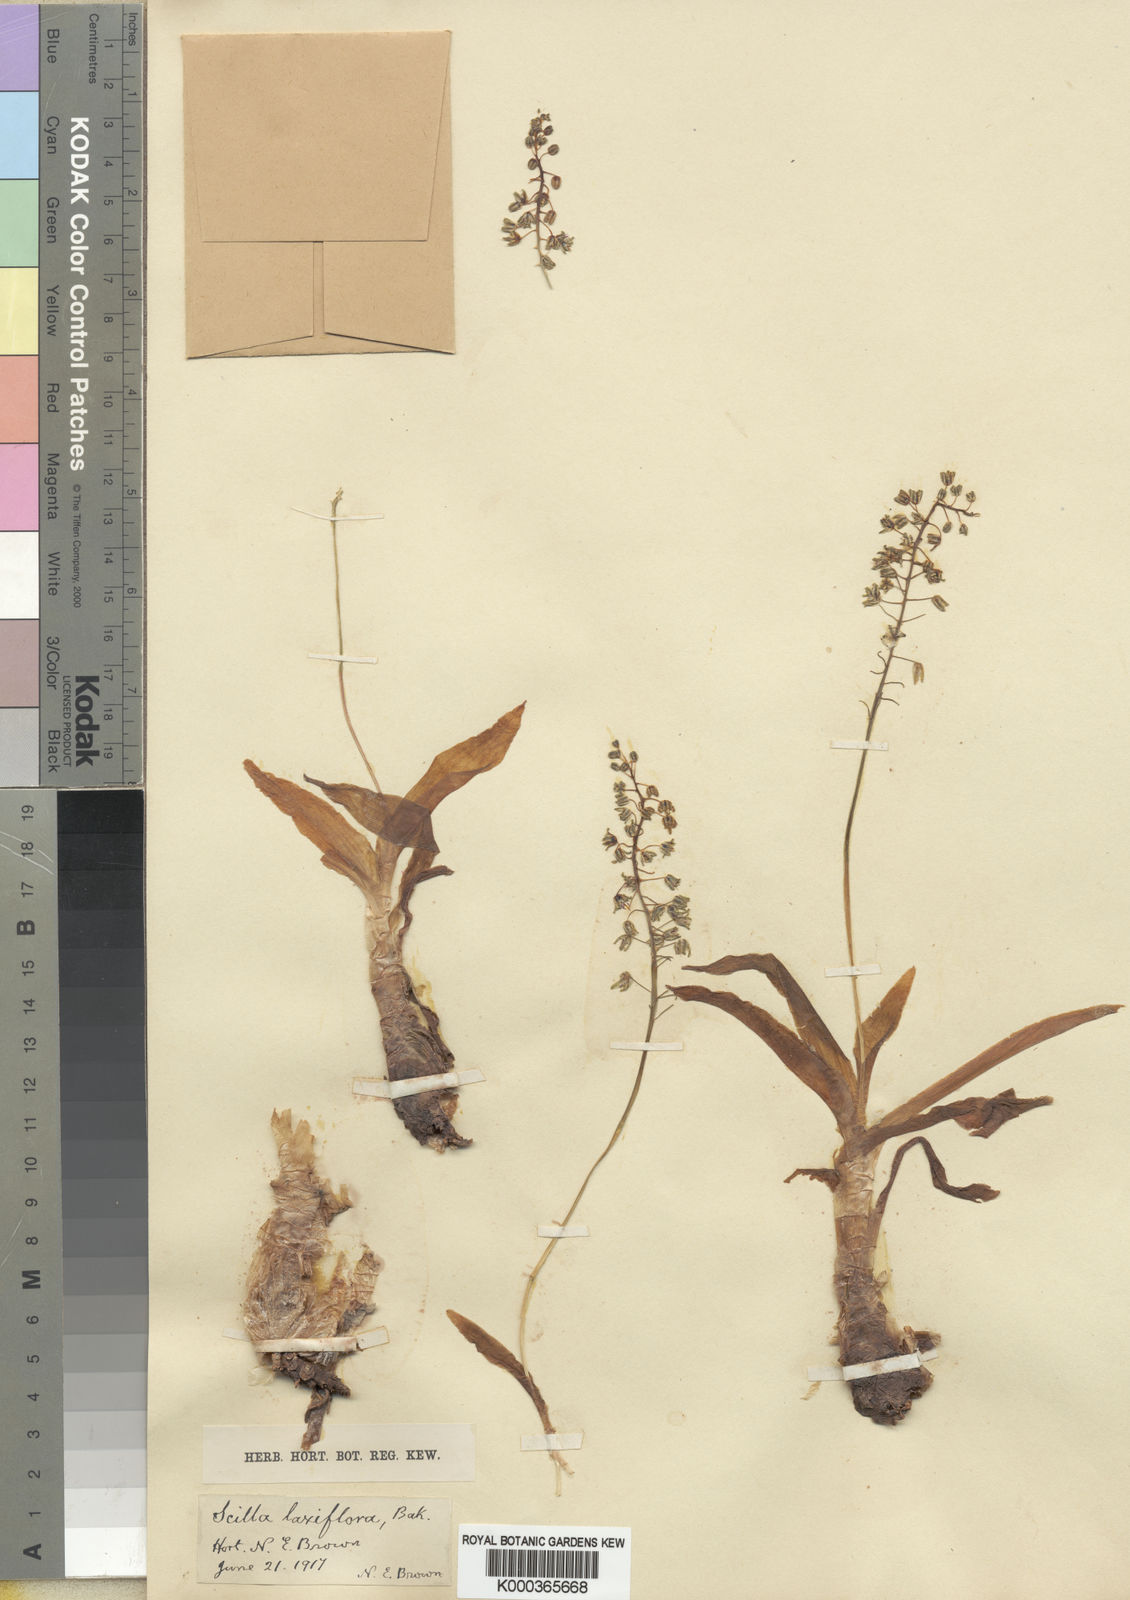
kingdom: Plantae
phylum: Tracheophyta
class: Liliopsida
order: Asparagales
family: Asparagaceae
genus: Ledebouria
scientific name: Ledebouria undulata
